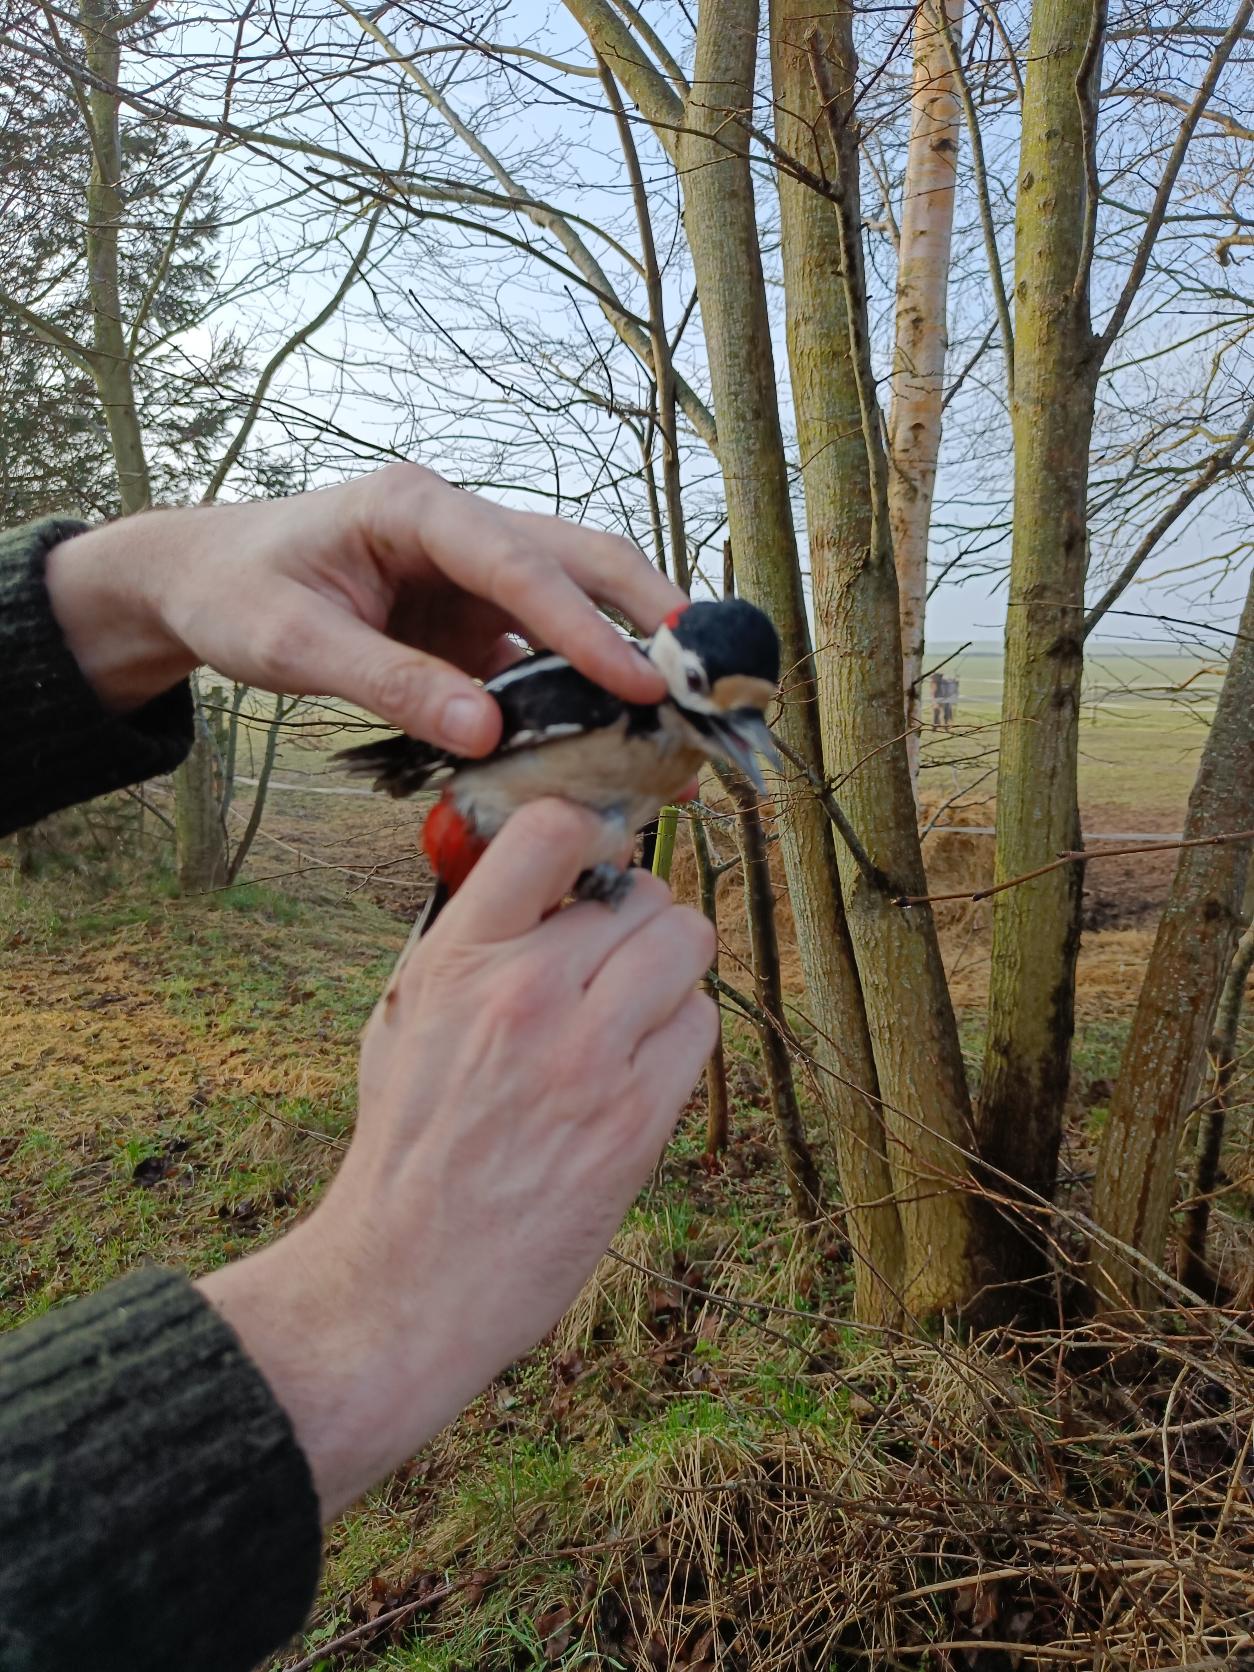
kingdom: Animalia
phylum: Chordata
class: Aves
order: Piciformes
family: Picidae
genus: Dendrocopos
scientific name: Dendrocopos major
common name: Stor flagspætte
